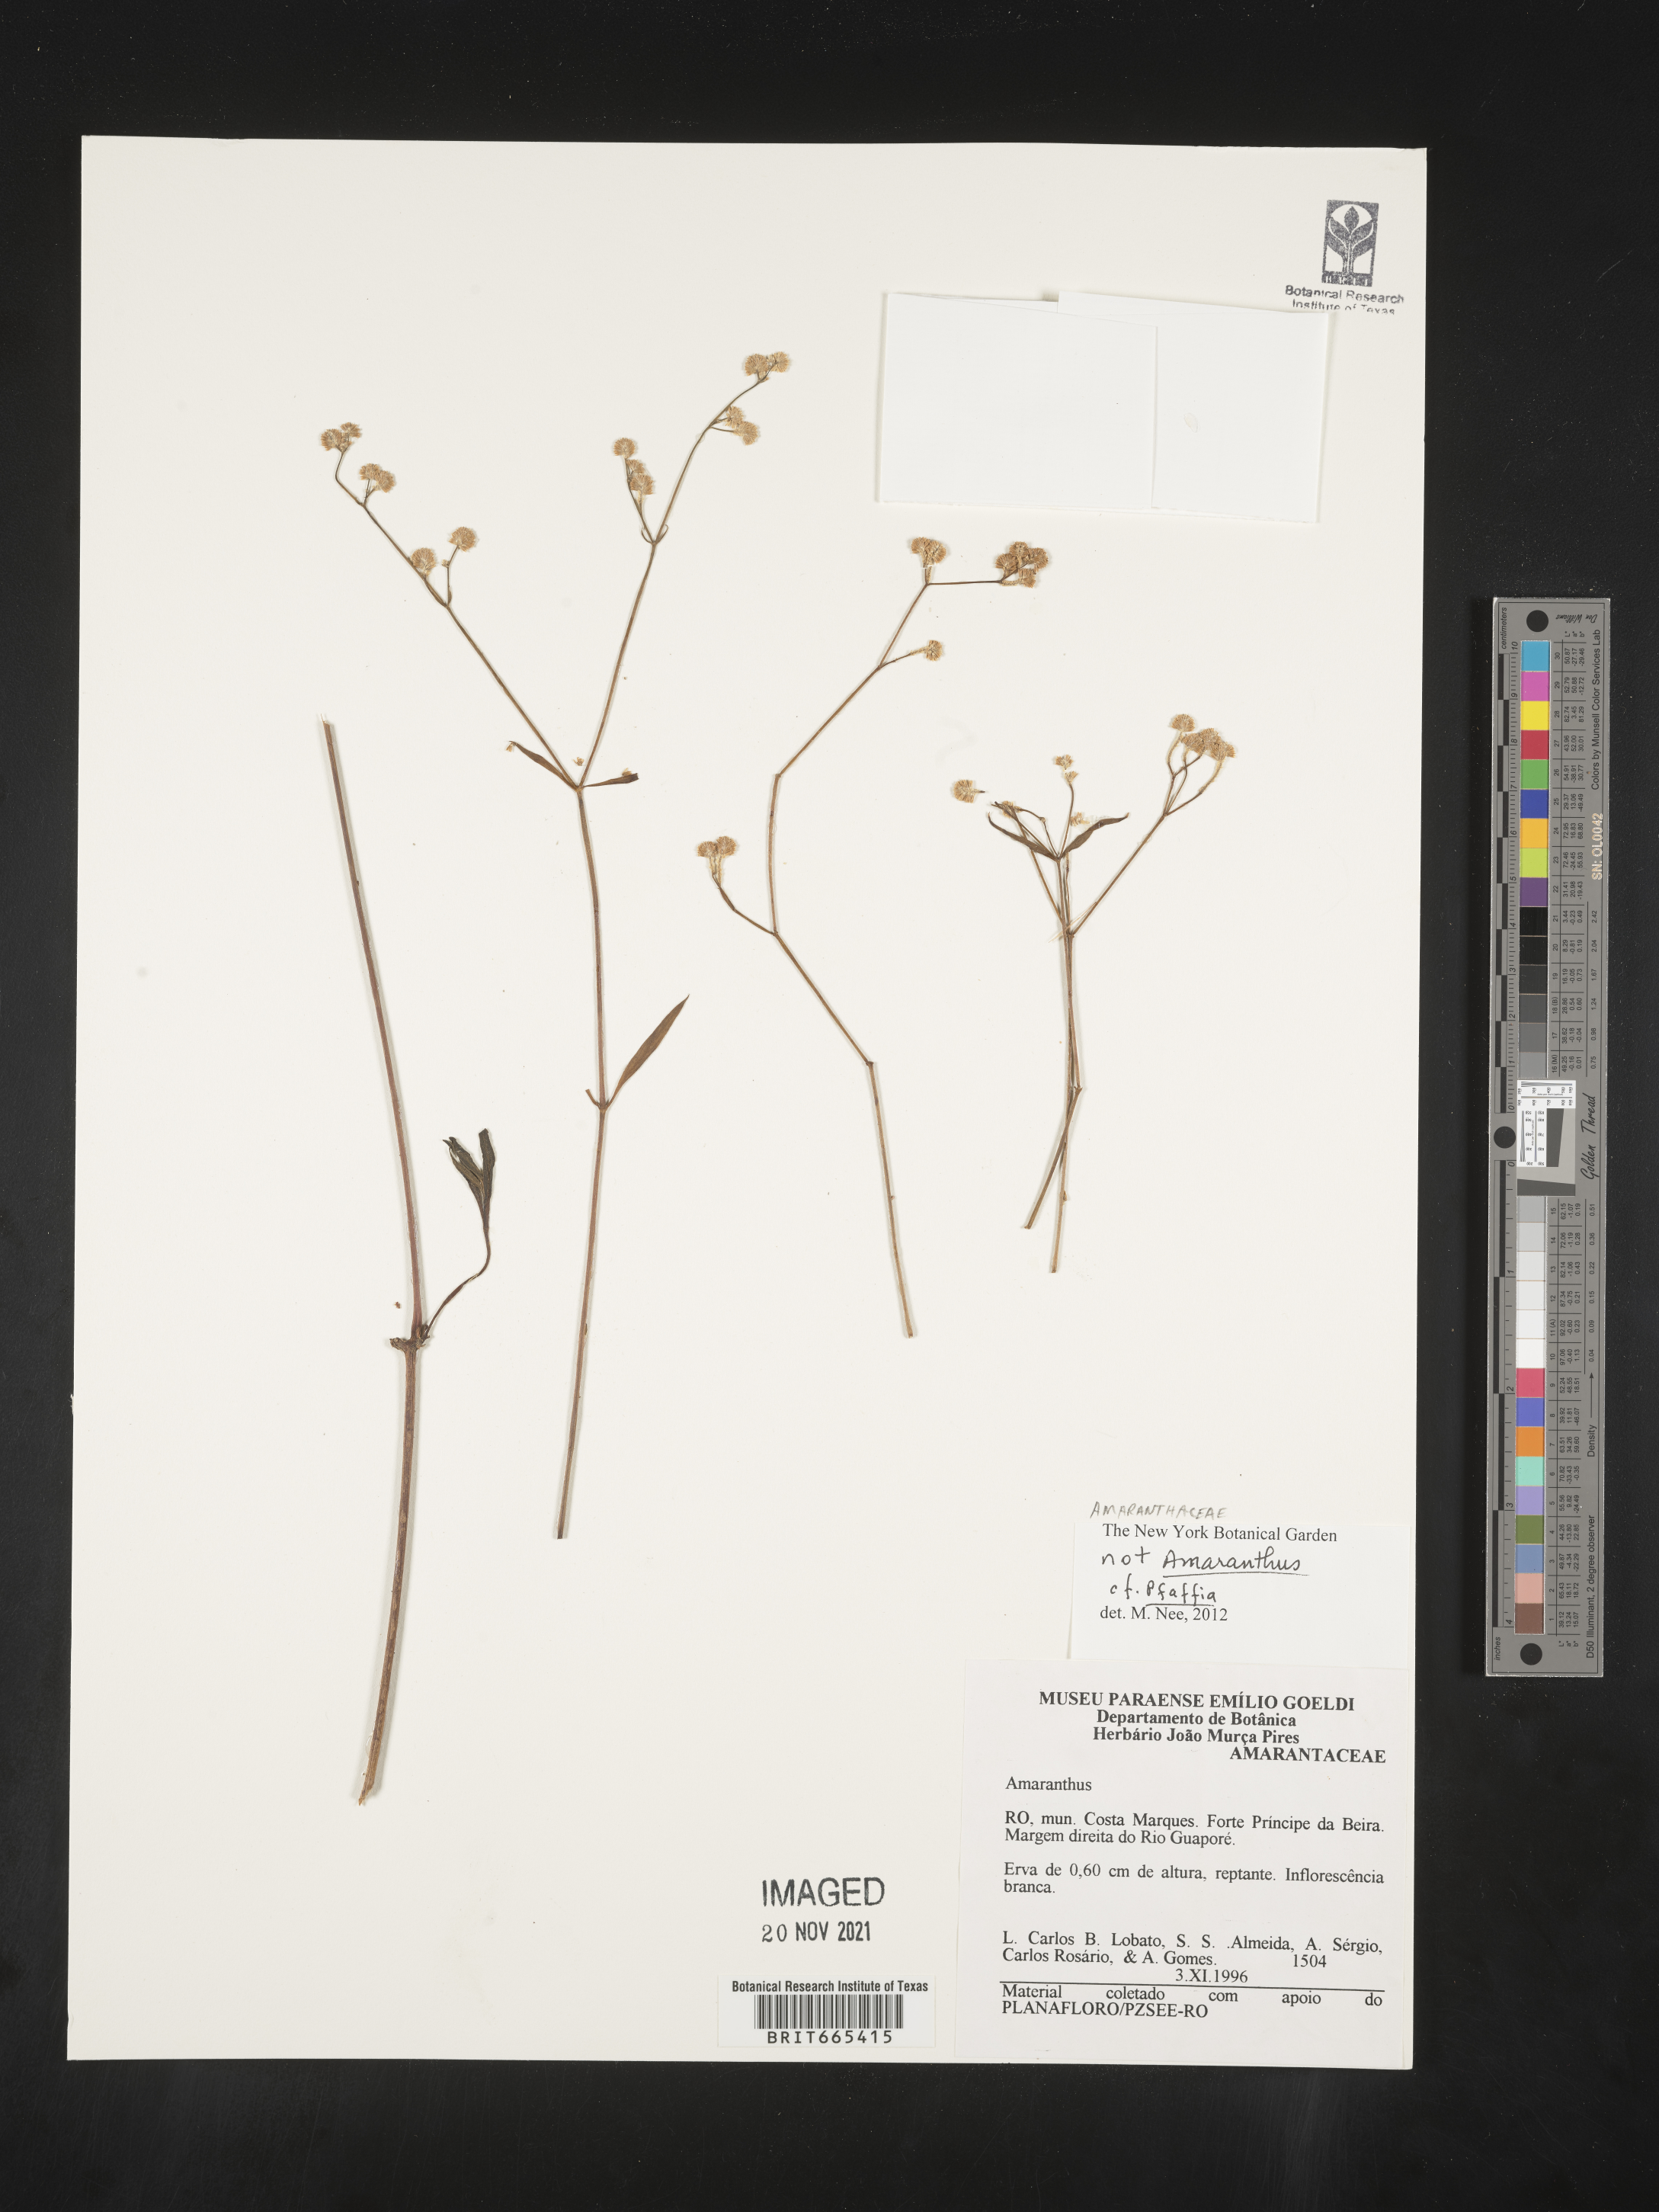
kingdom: Plantae
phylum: Tracheophyta
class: Magnoliopsida
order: Caryophyllales
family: Amaranthaceae
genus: Pfaffia
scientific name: Pfaffia
